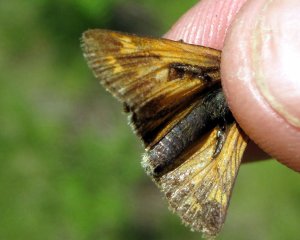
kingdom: Animalia
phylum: Arthropoda
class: Insecta
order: Lepidoptera
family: Hesperiidae
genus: Hesperia
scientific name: Hesperia sassacus
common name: Sassacus Skipper
